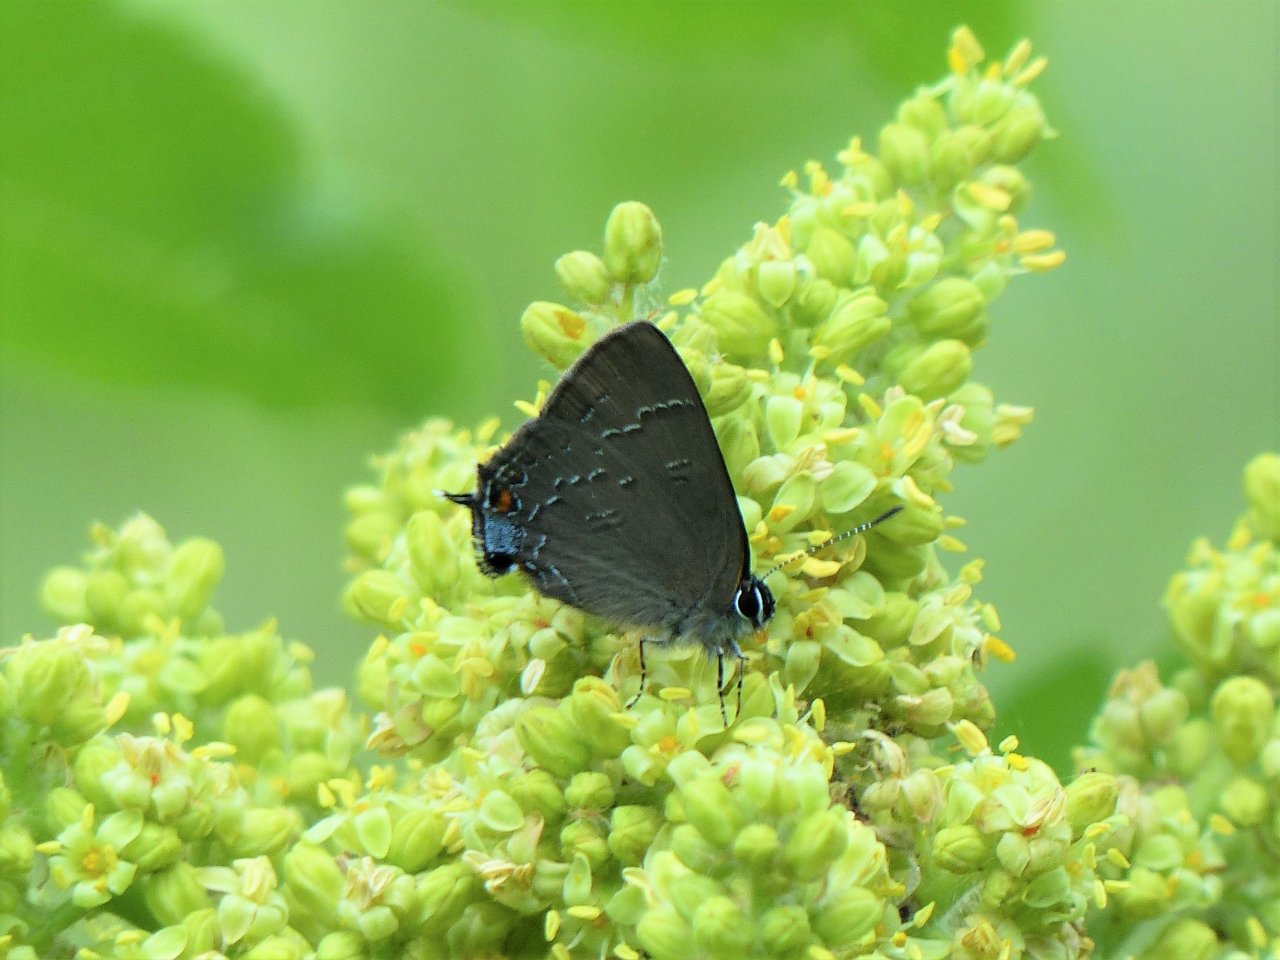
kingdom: Animalia
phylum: Arthropoda
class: Insecta
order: Lepidoptera
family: Lycaenidae
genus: Satyrium
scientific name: Satyrium calanus
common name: Banded Hairstreak
